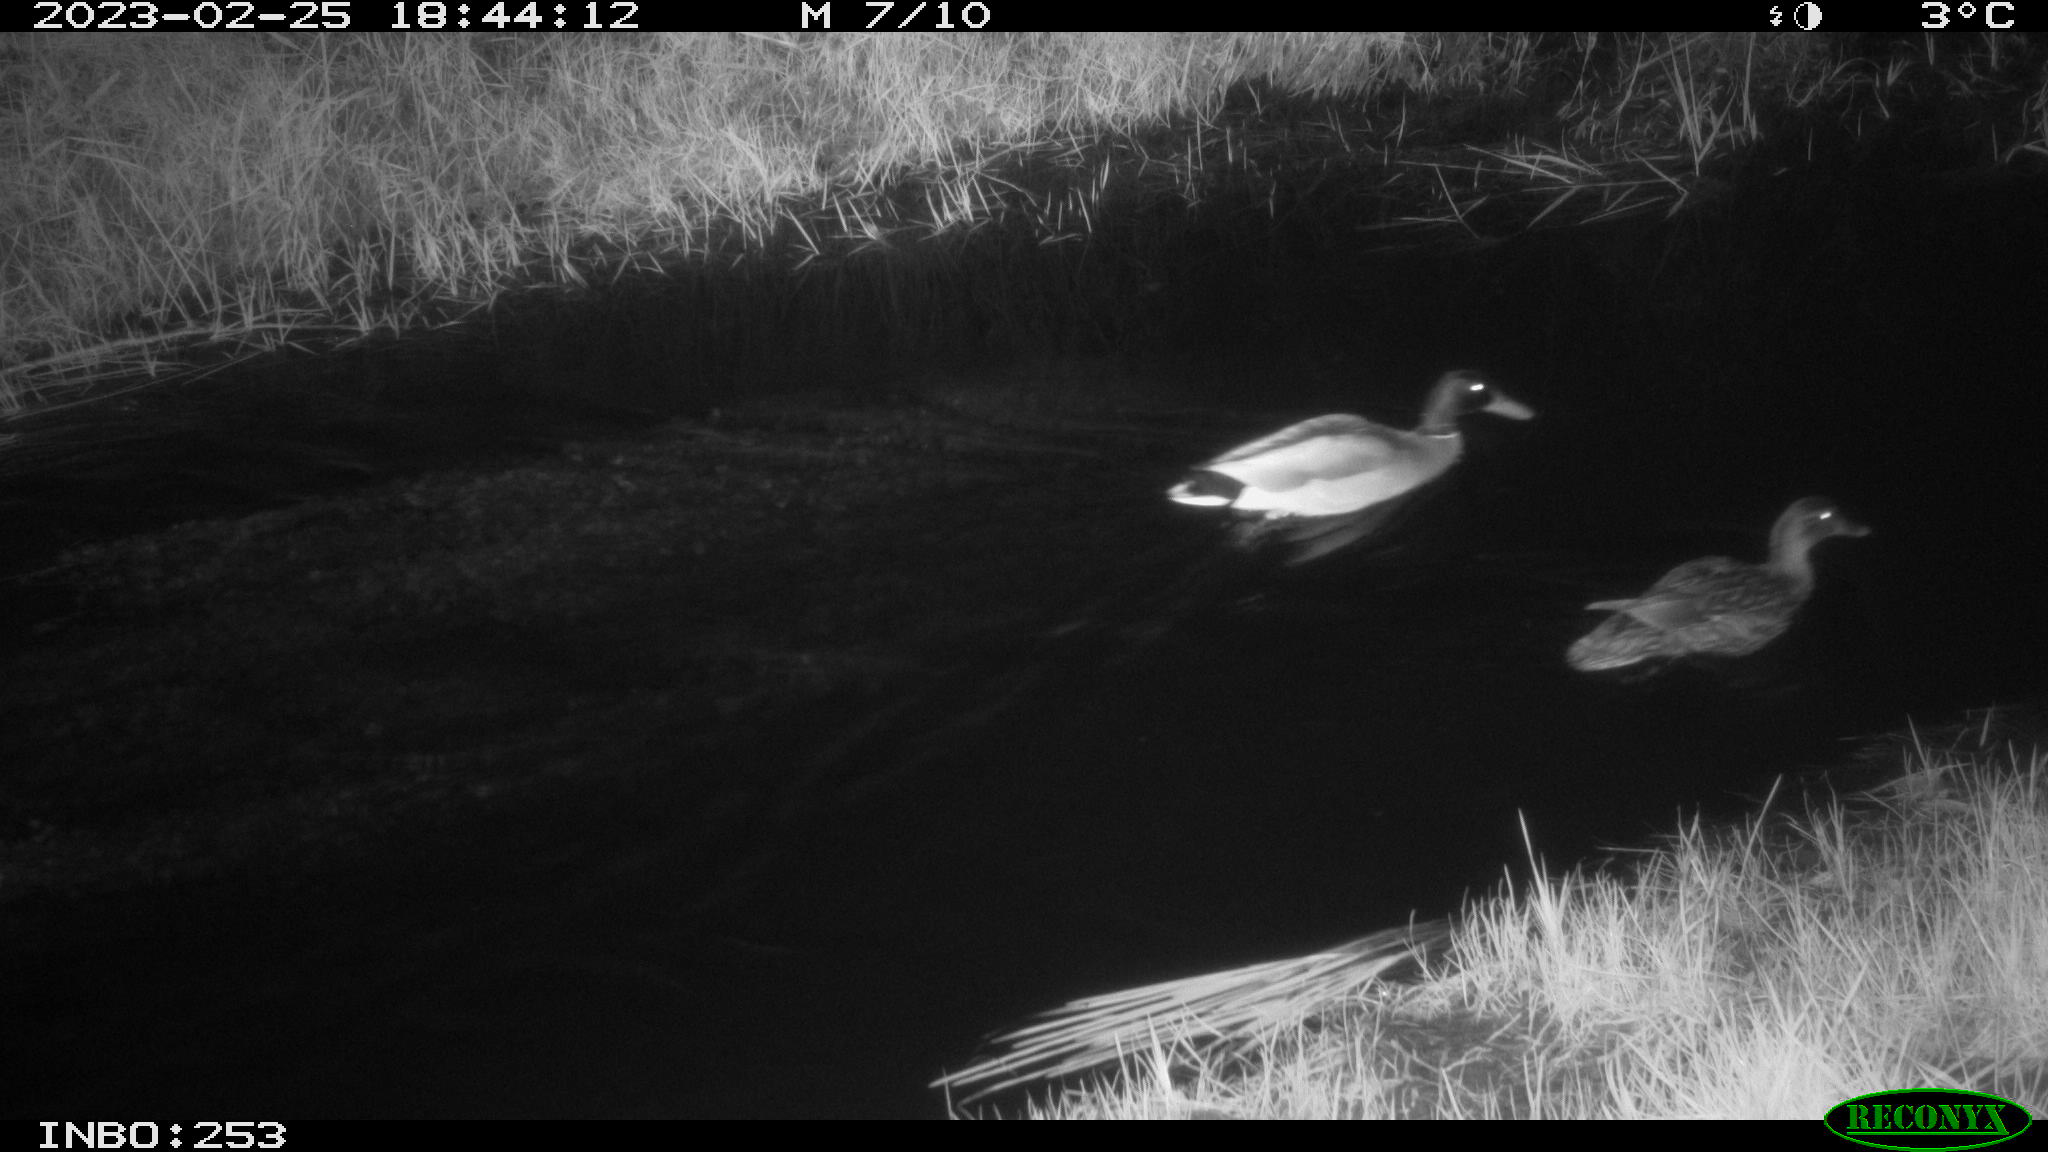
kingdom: Animalia
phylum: Chordata
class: Aves
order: Anseriformes
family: Anatidae
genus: Anas
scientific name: Anas
